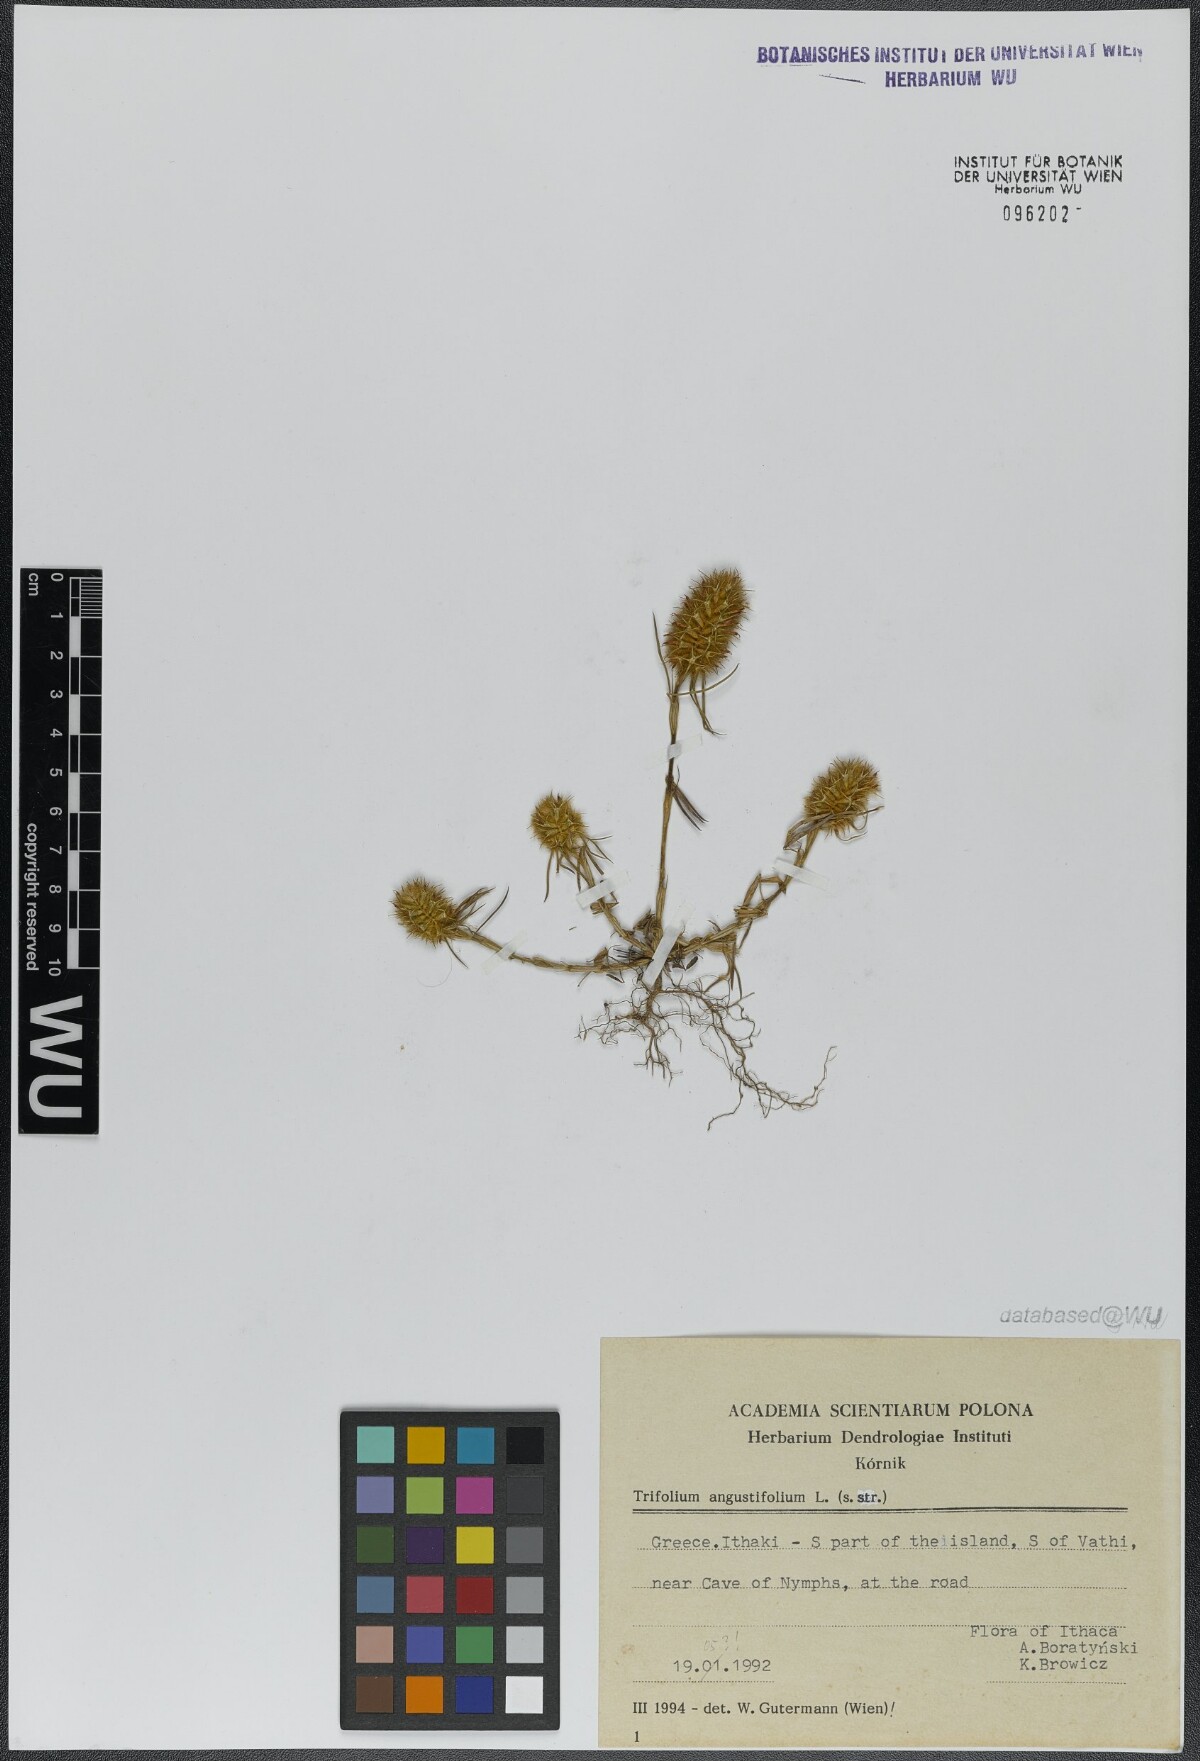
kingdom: Plantae
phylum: Tracheophyta
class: Magnoliopsida
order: Fabales
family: Fabaceae
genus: Trifolium
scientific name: Trifolium angustifolium
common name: Narrow clover
